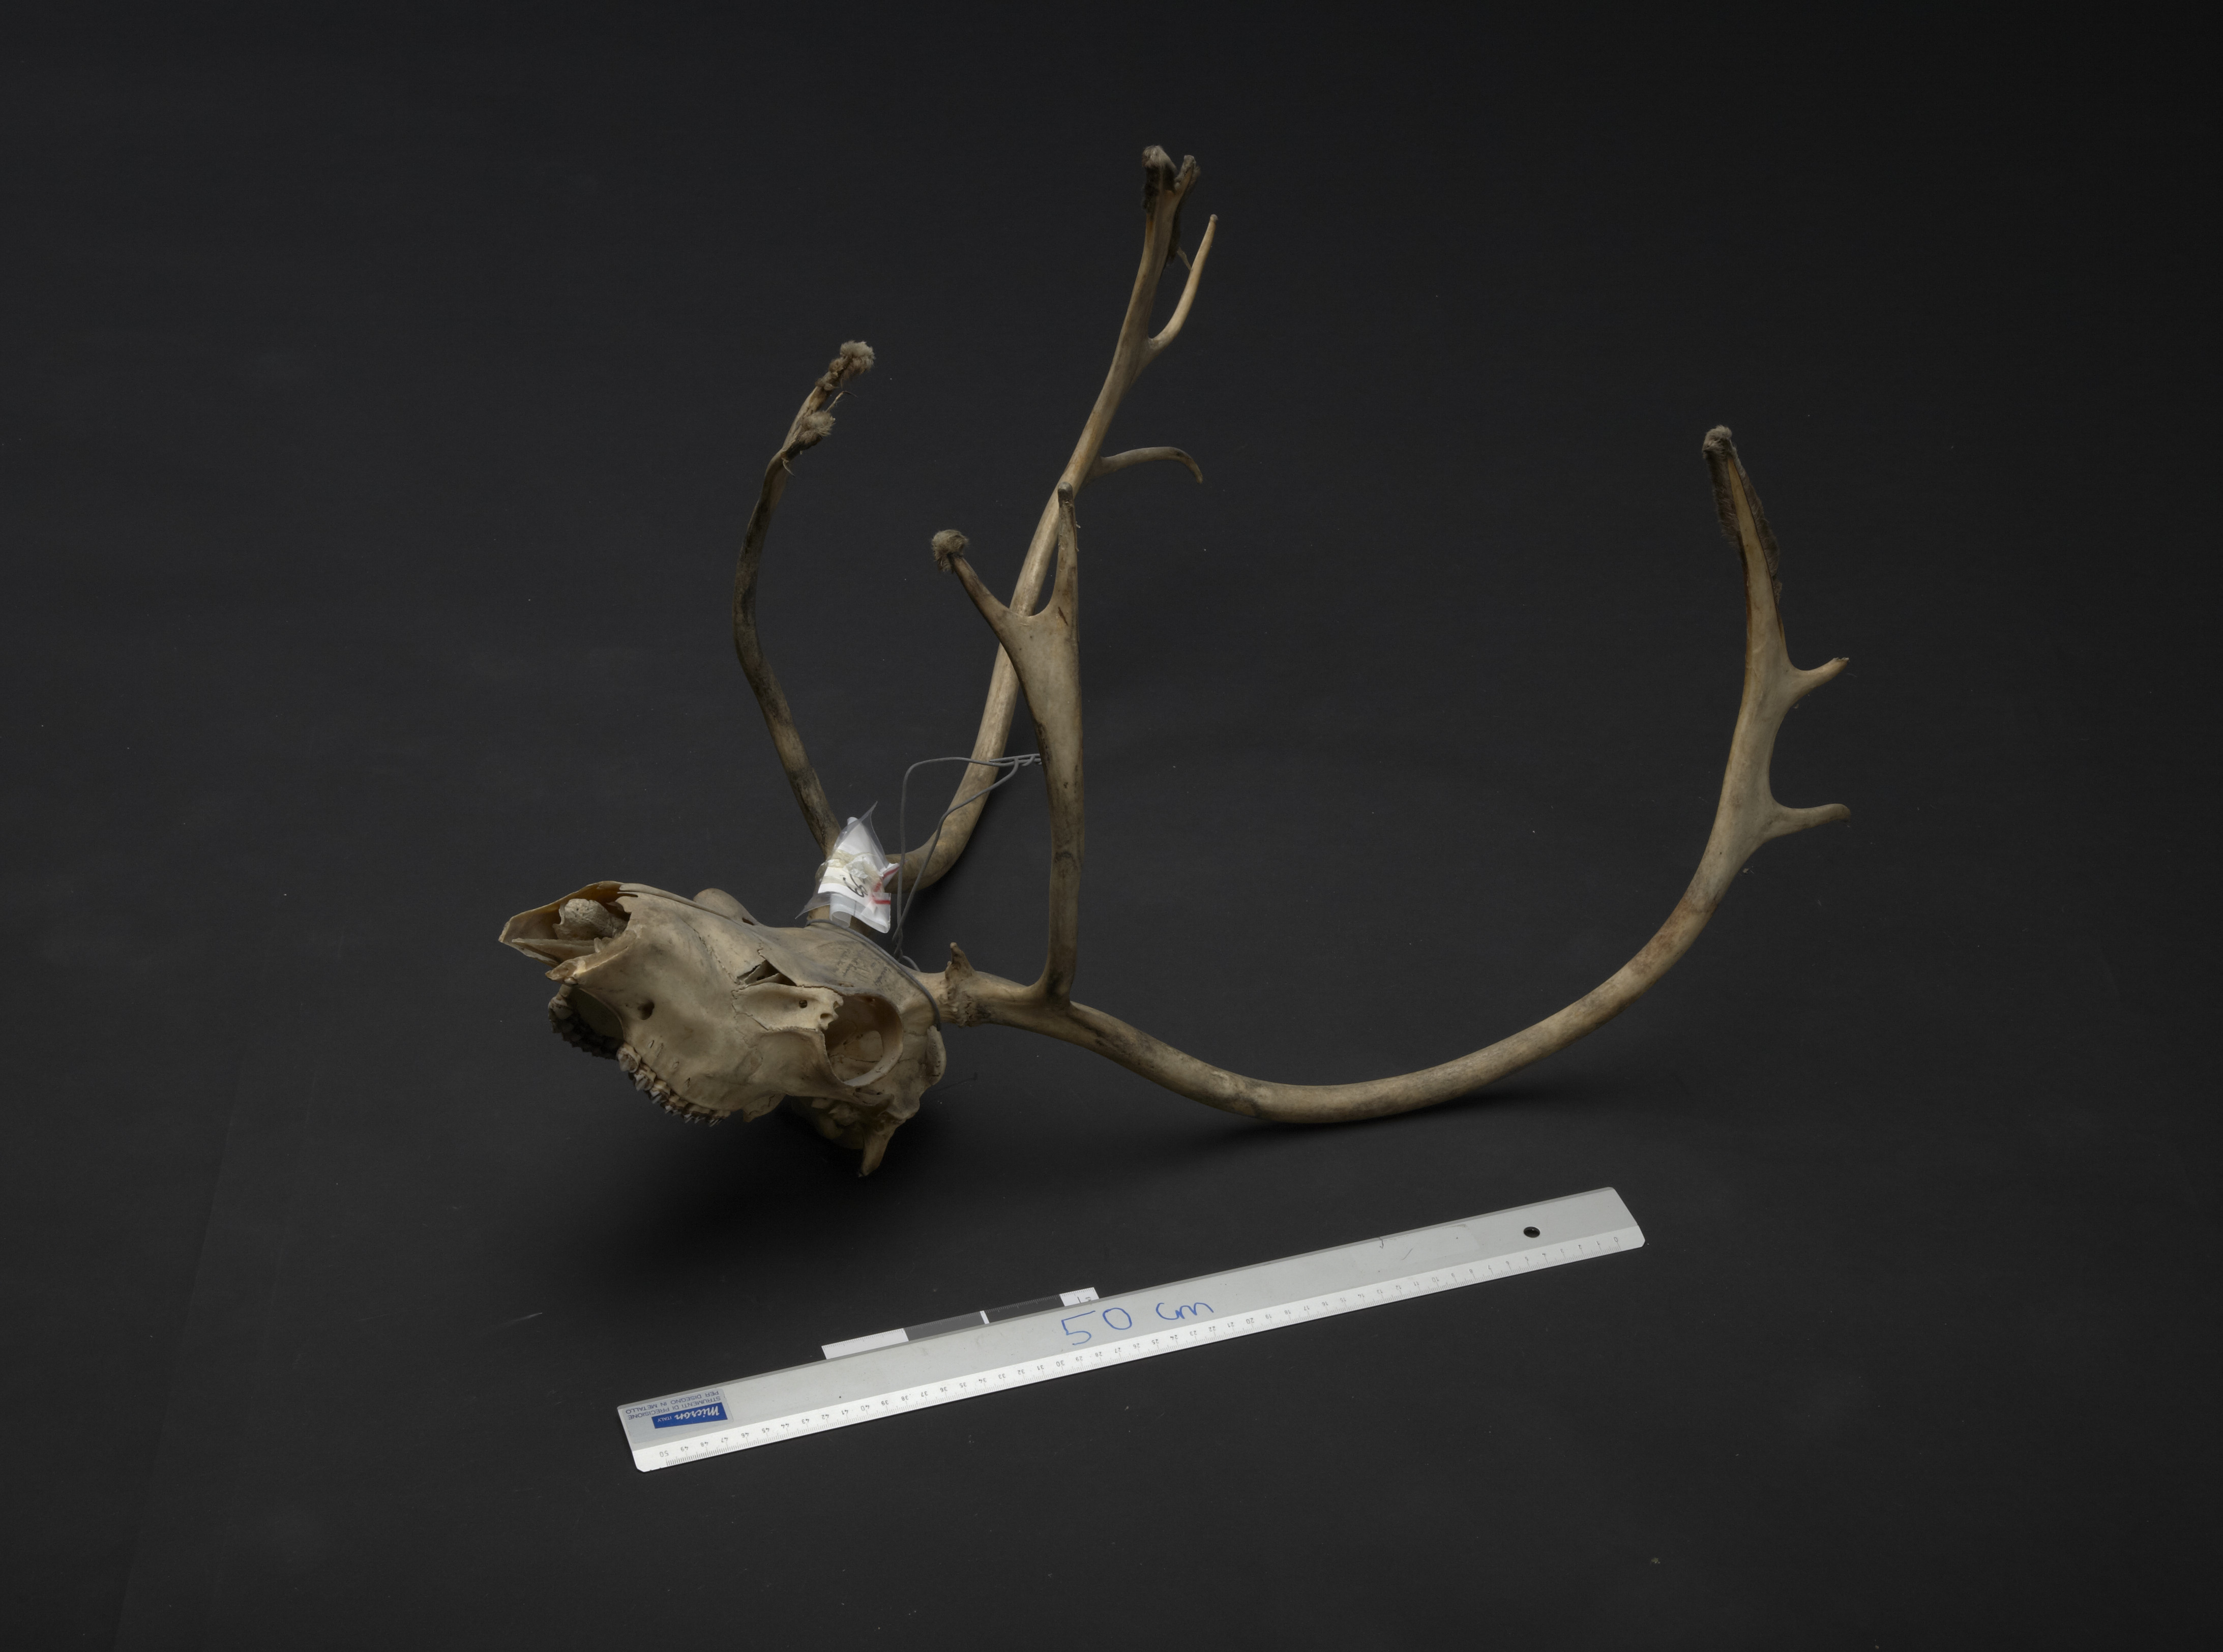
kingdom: Animalia
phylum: Chordata
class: Mammalia
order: Artiodactyla
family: Cervidae
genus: Rangifer
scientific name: Rangifer tarandus
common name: Reindeer
